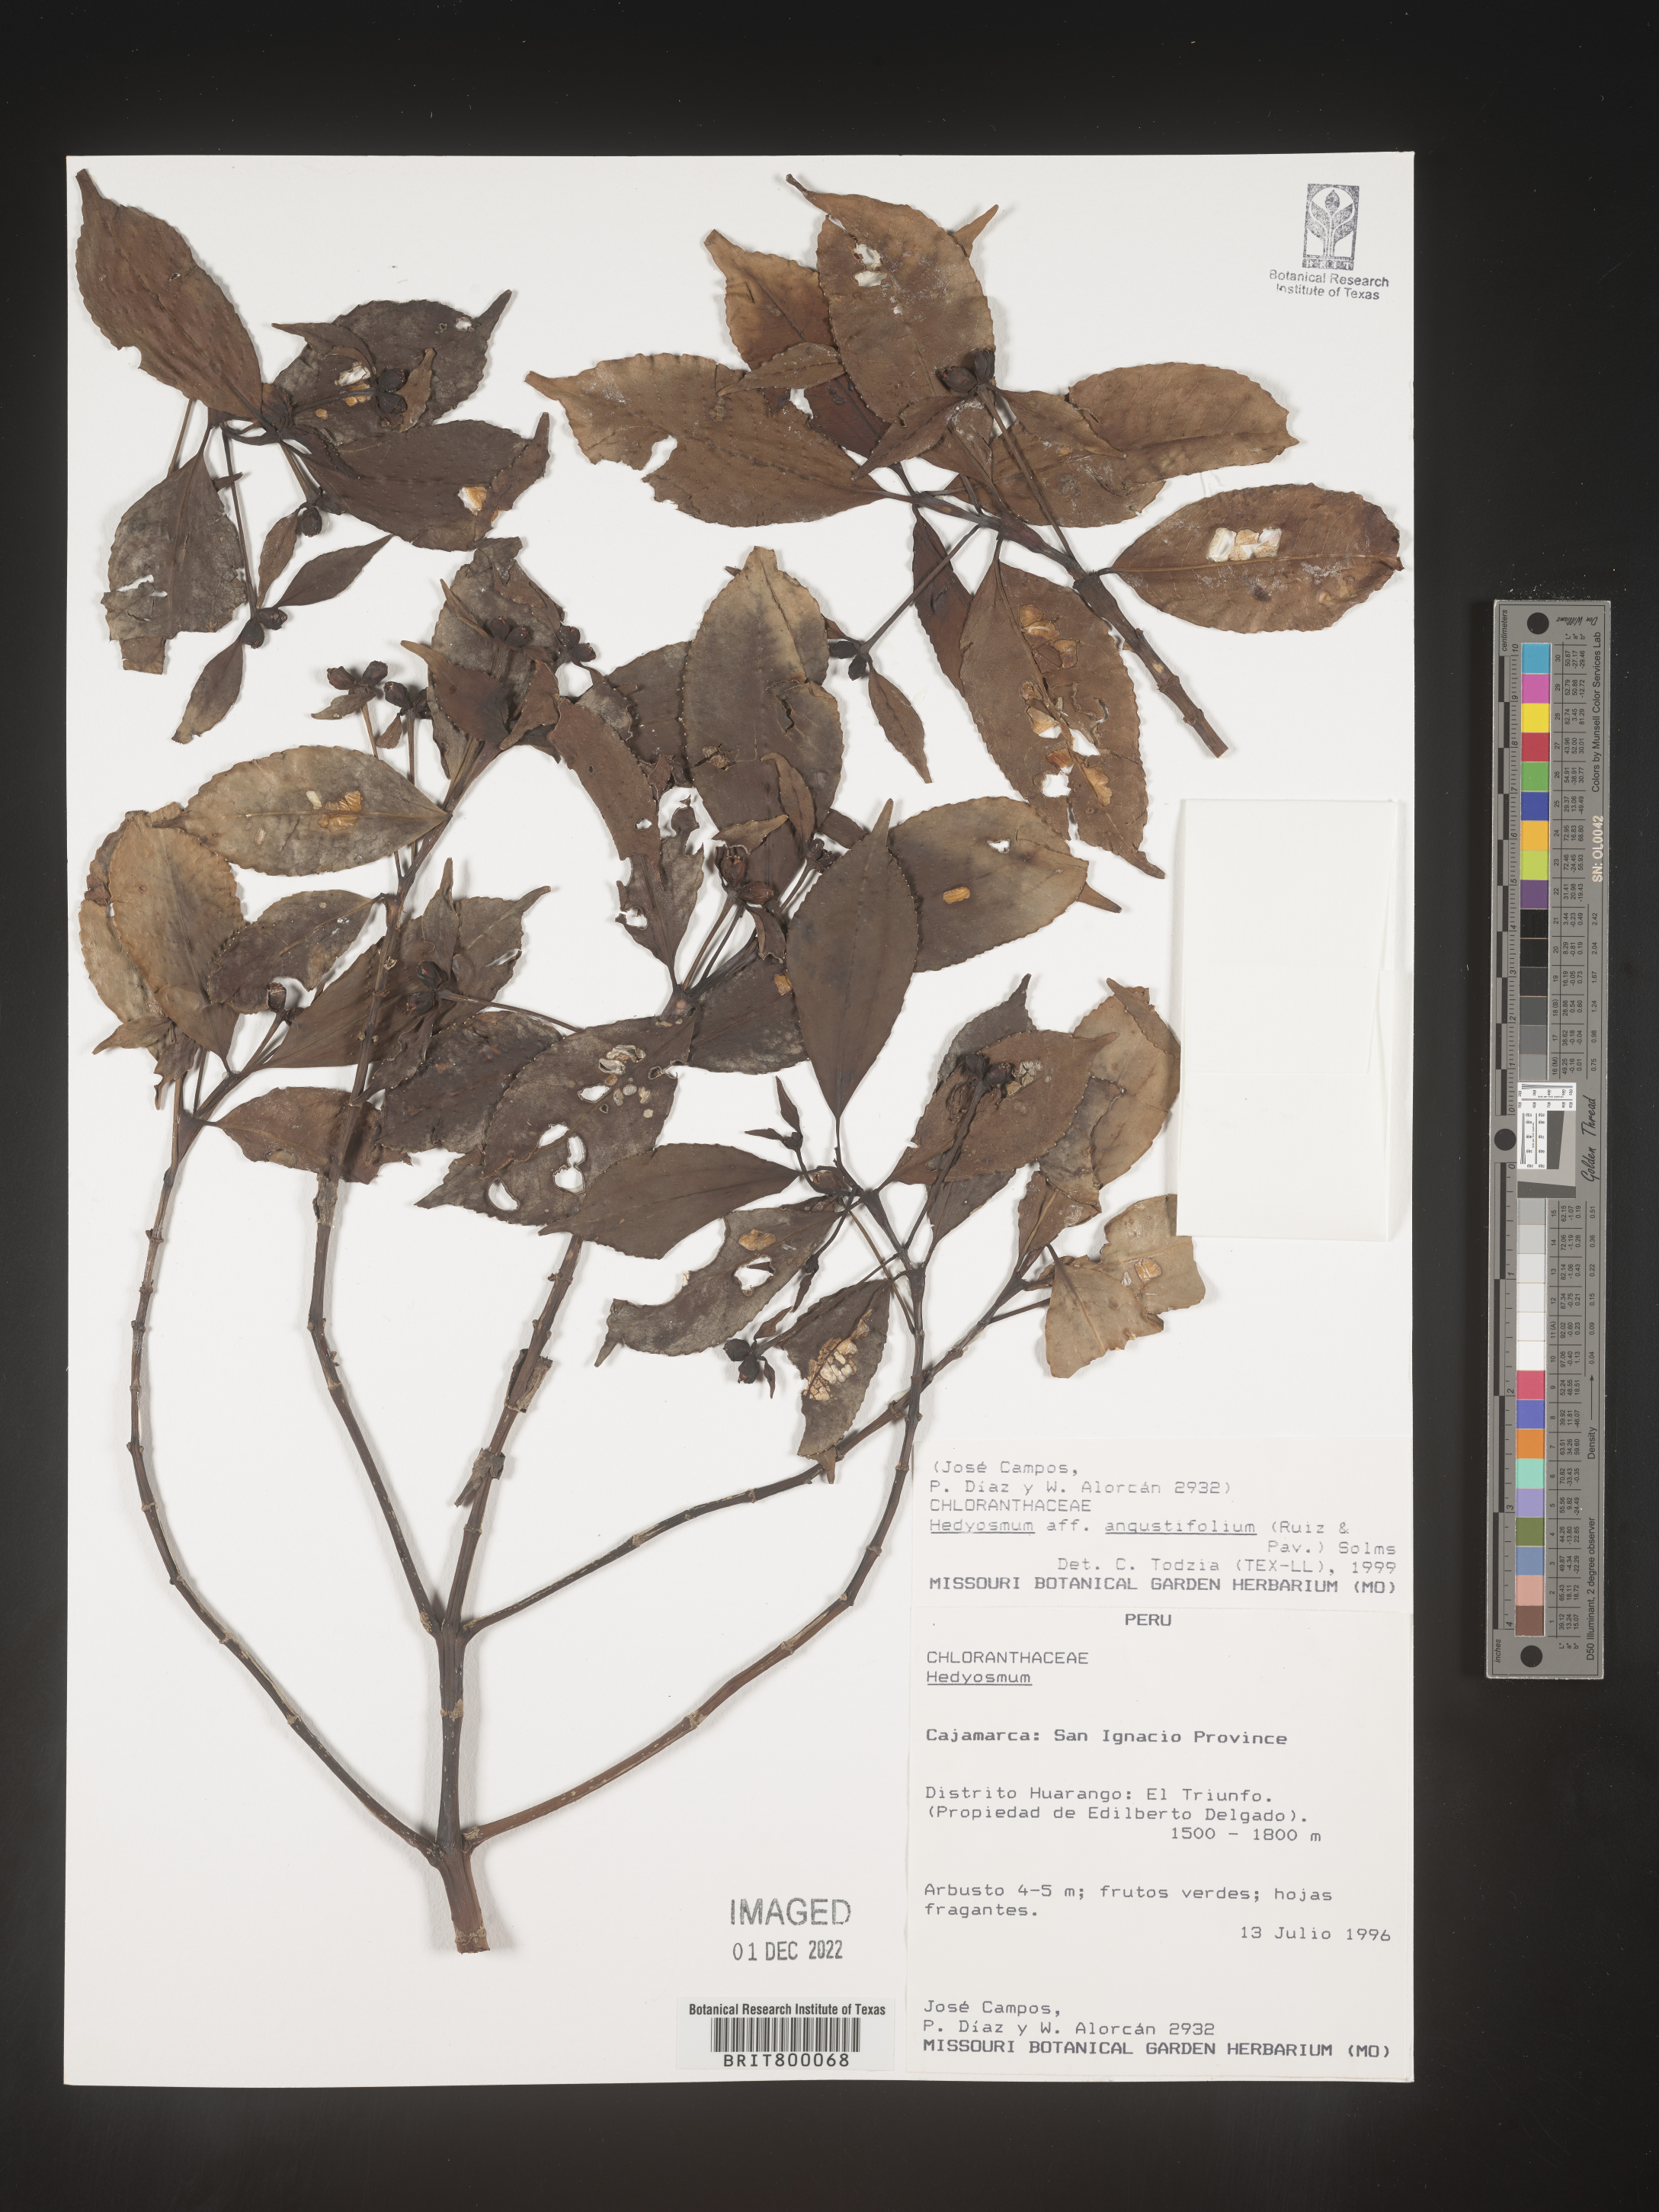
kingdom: Plantae
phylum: Tracheophyta
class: Magnoliopsida
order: Chloranthales
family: Chloranthaceae
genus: Hedyosmum
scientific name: Hedyosmum
